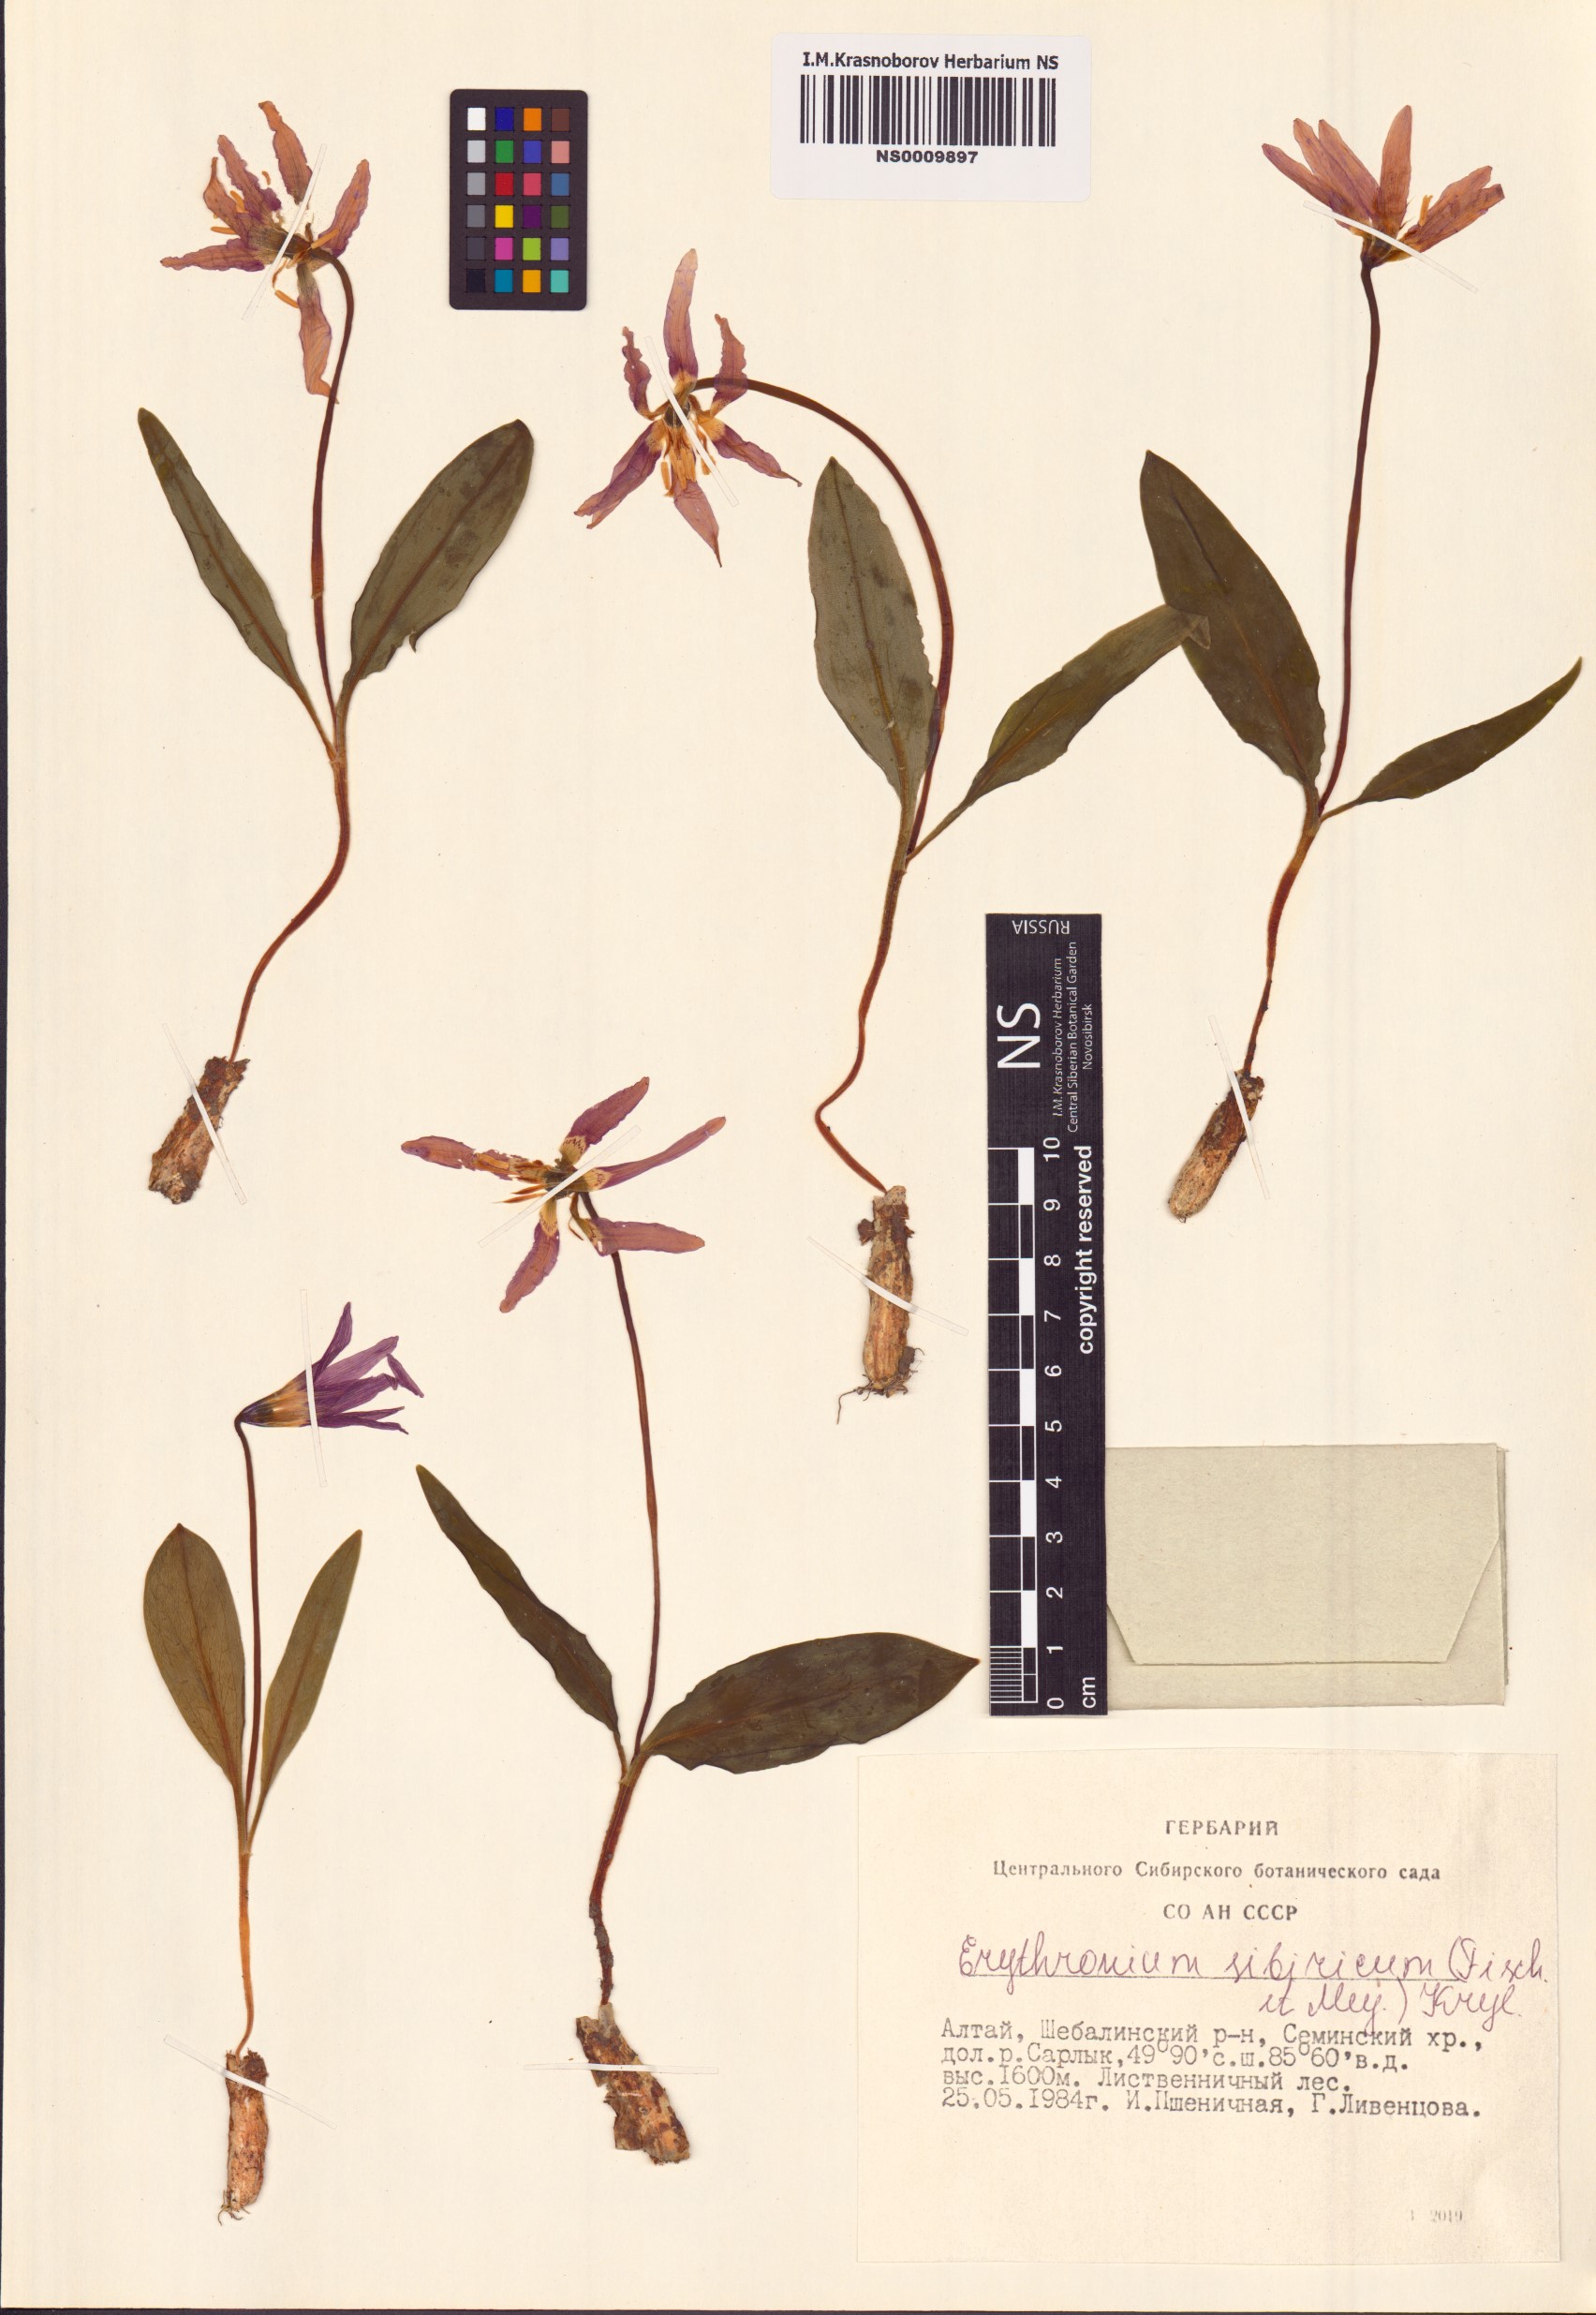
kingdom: Plantae
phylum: Tracheophyta
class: Liliopsida
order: Liliales
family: Liliaceae
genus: Erythronium
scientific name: Erythronium sibiricum
